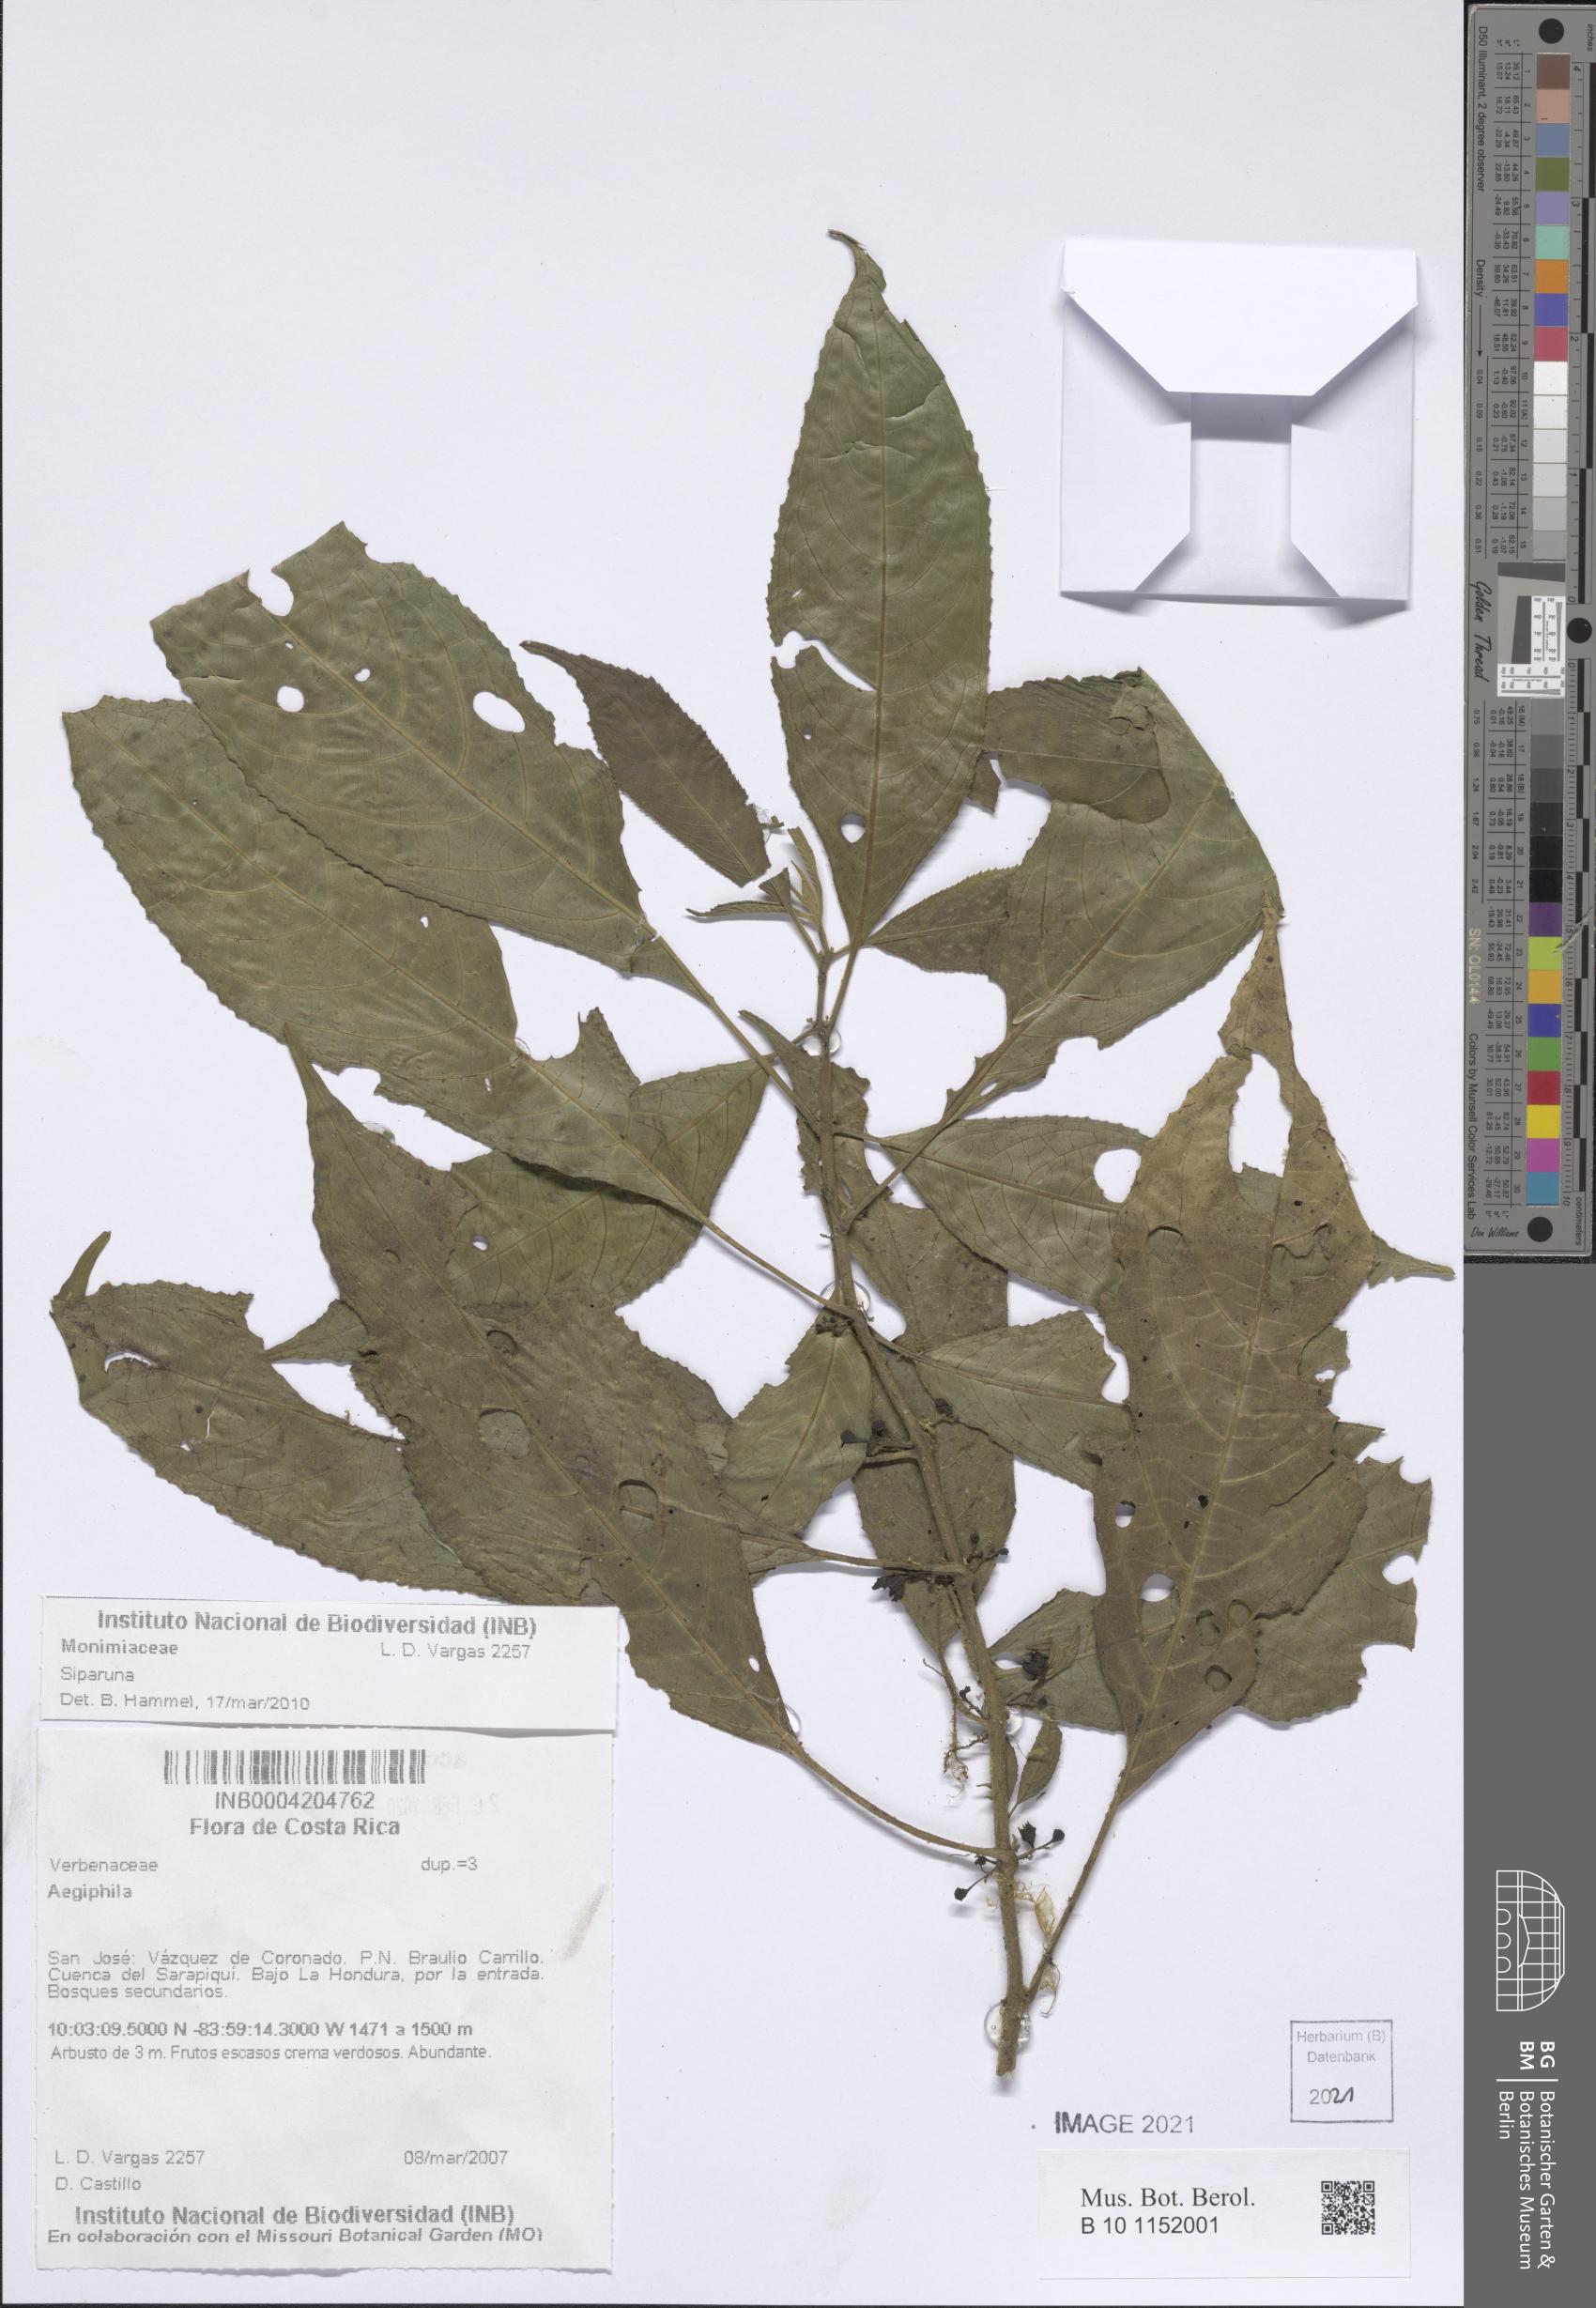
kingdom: Plantae
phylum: Tracheophyta
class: Magnoliopsida
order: Laurales
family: Siparunaceae
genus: Siparuna
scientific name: Siparuna
